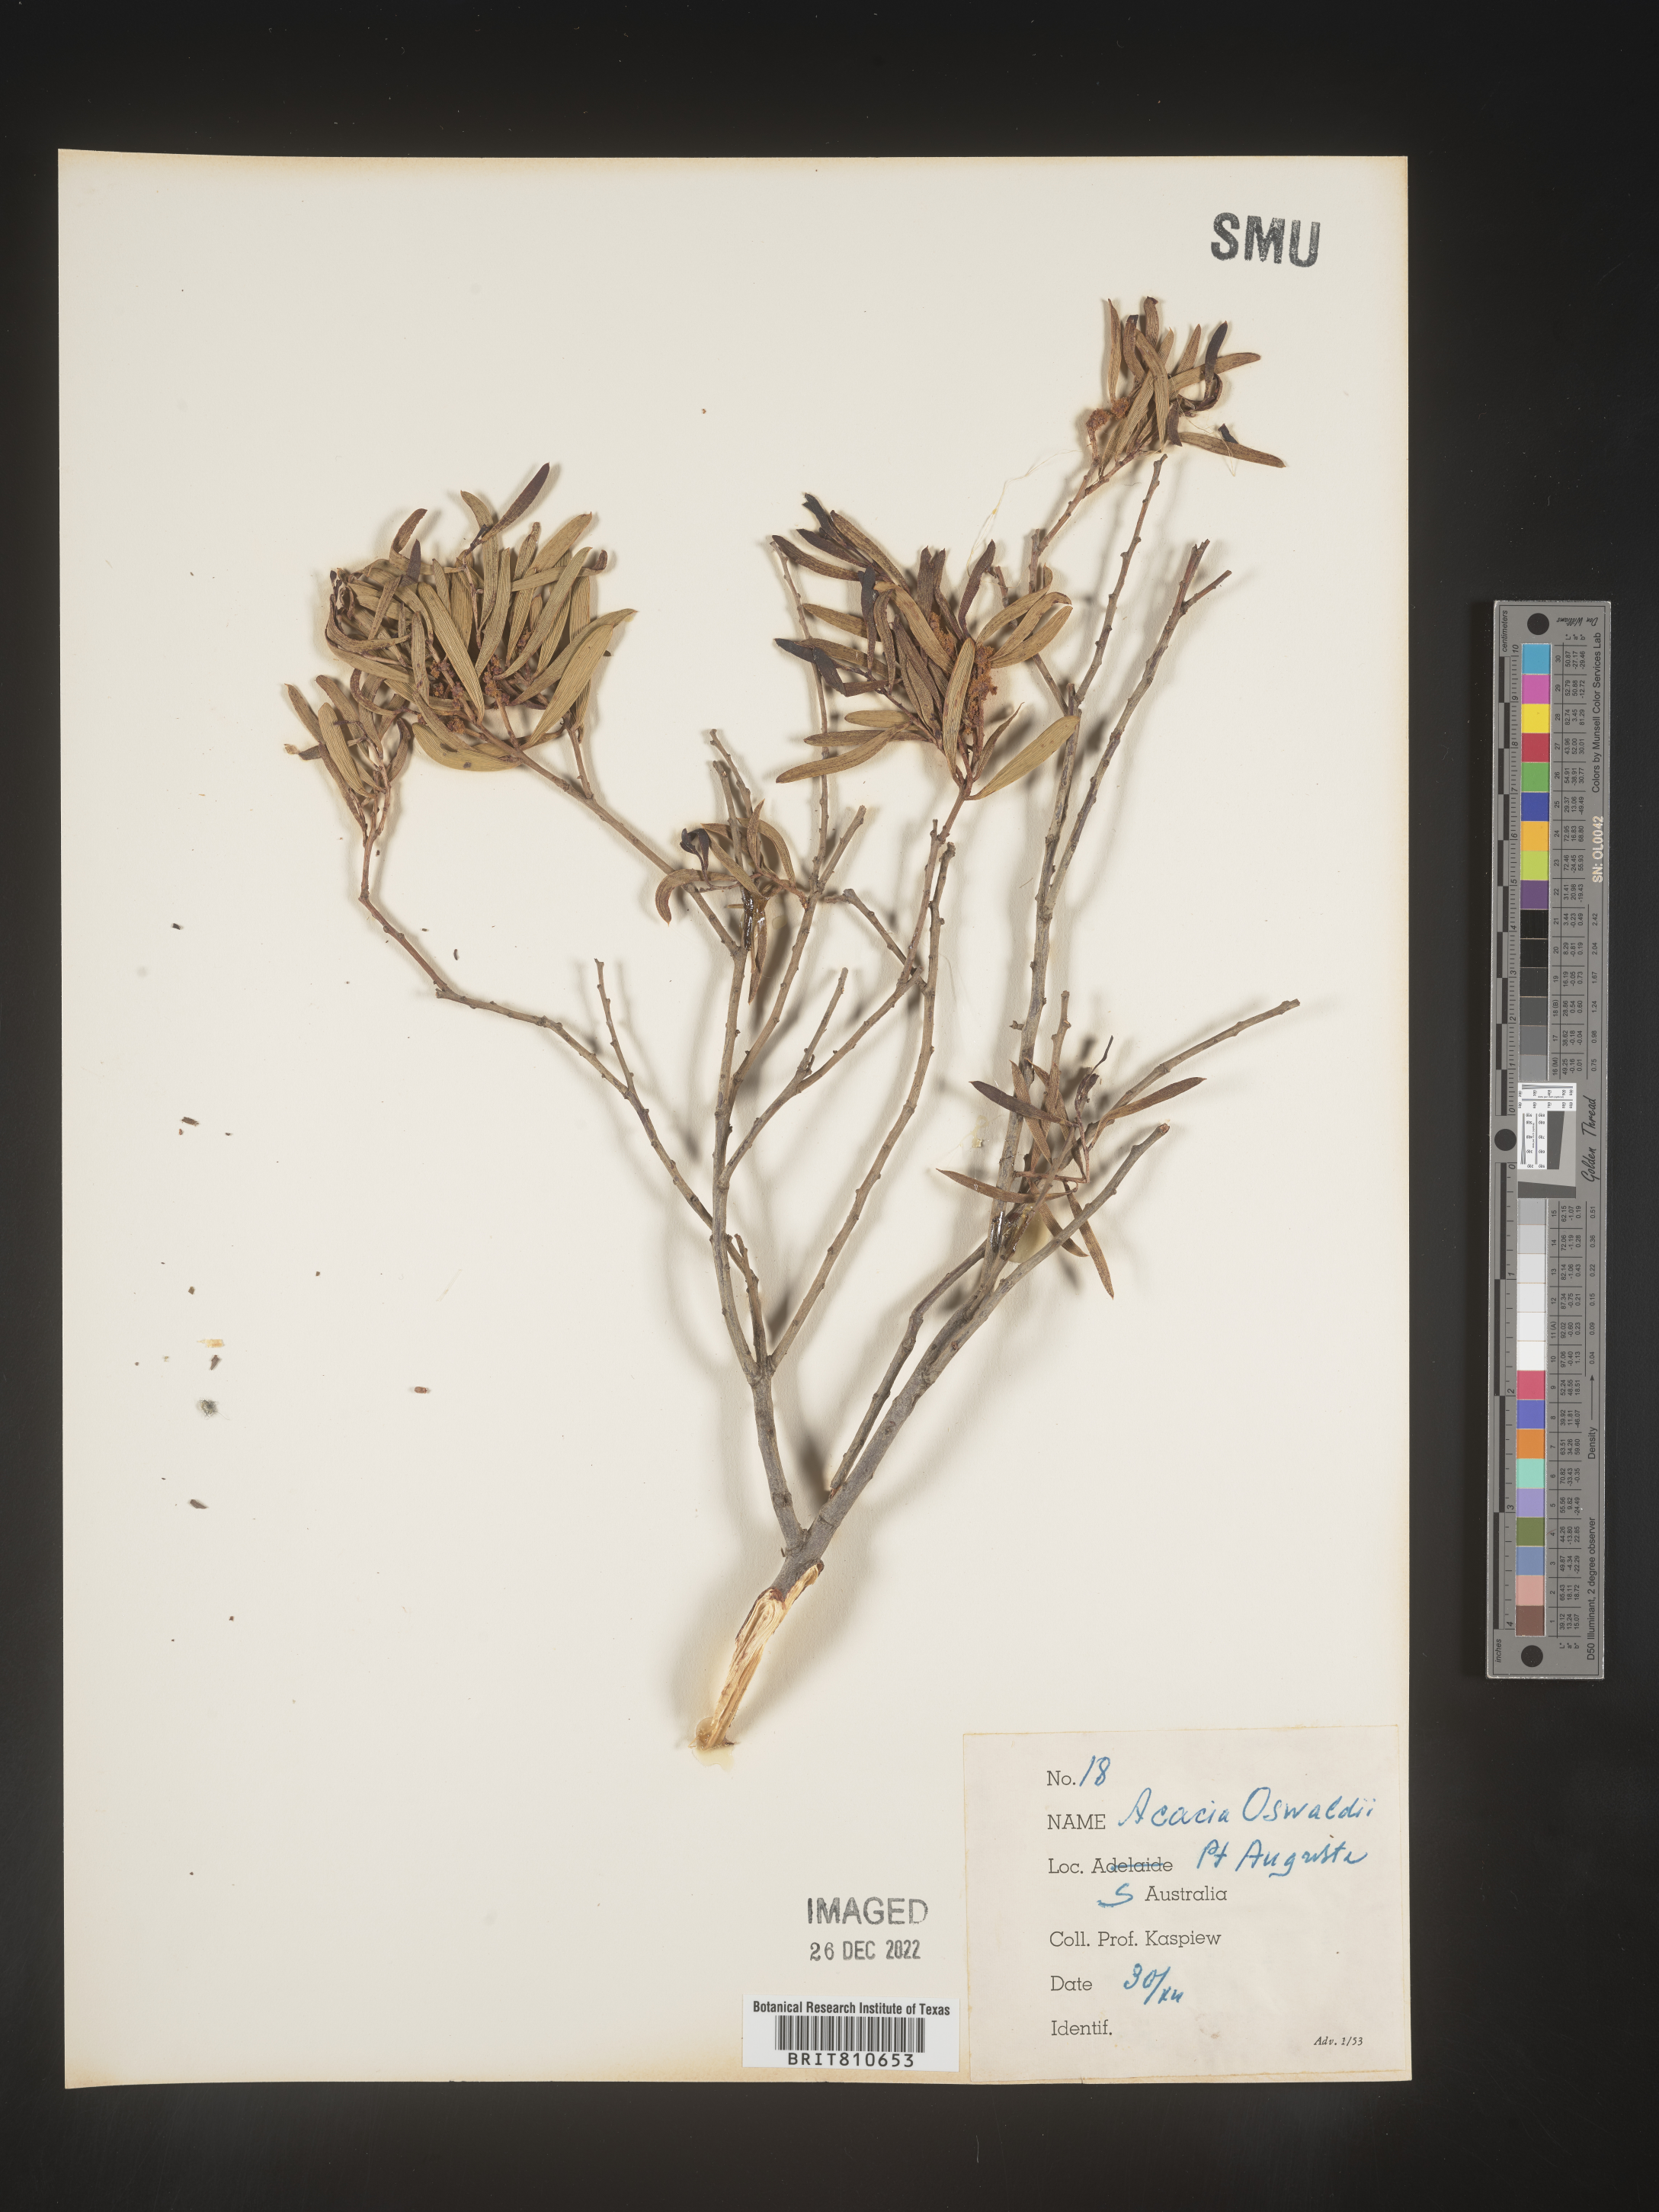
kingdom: Plantae
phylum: Tracheophyta
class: Magnoliopsida
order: Fabales
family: Fabaceae
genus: Acacia
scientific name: Acacia
